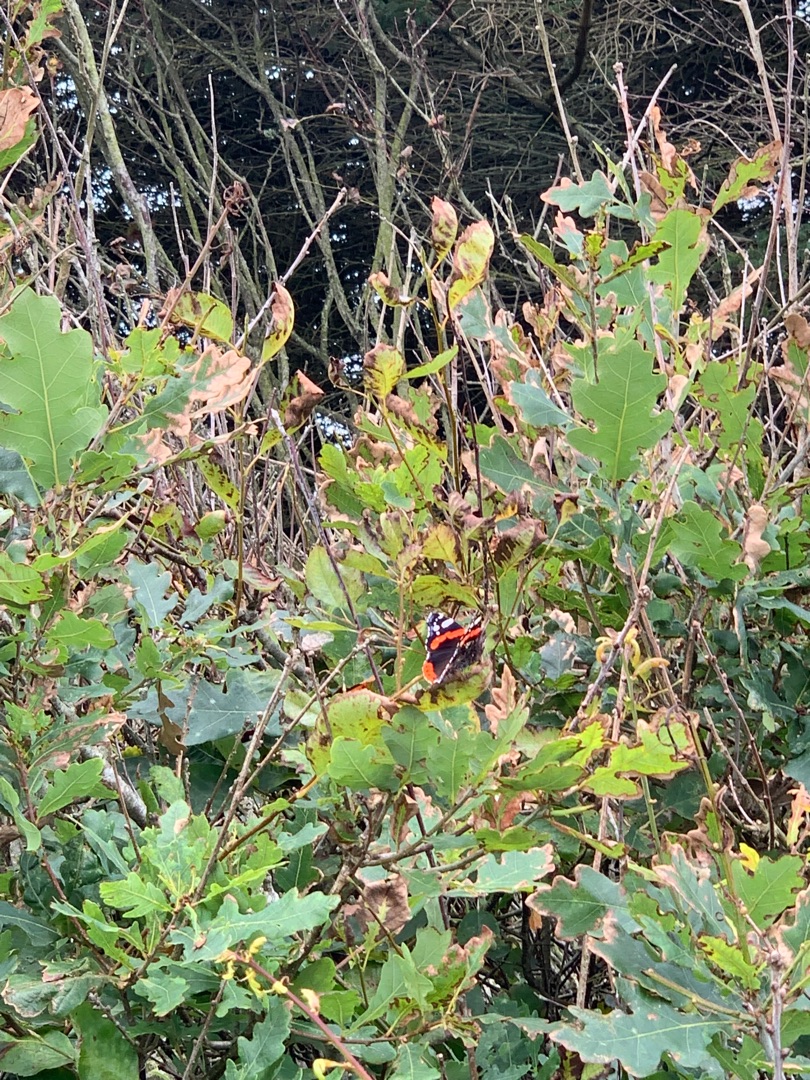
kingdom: Animalia
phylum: Arthropoda
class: Insecta
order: Lepidoptera
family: Nymphalidae
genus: Vanessa
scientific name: Vanessa atalanta
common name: Admiral
